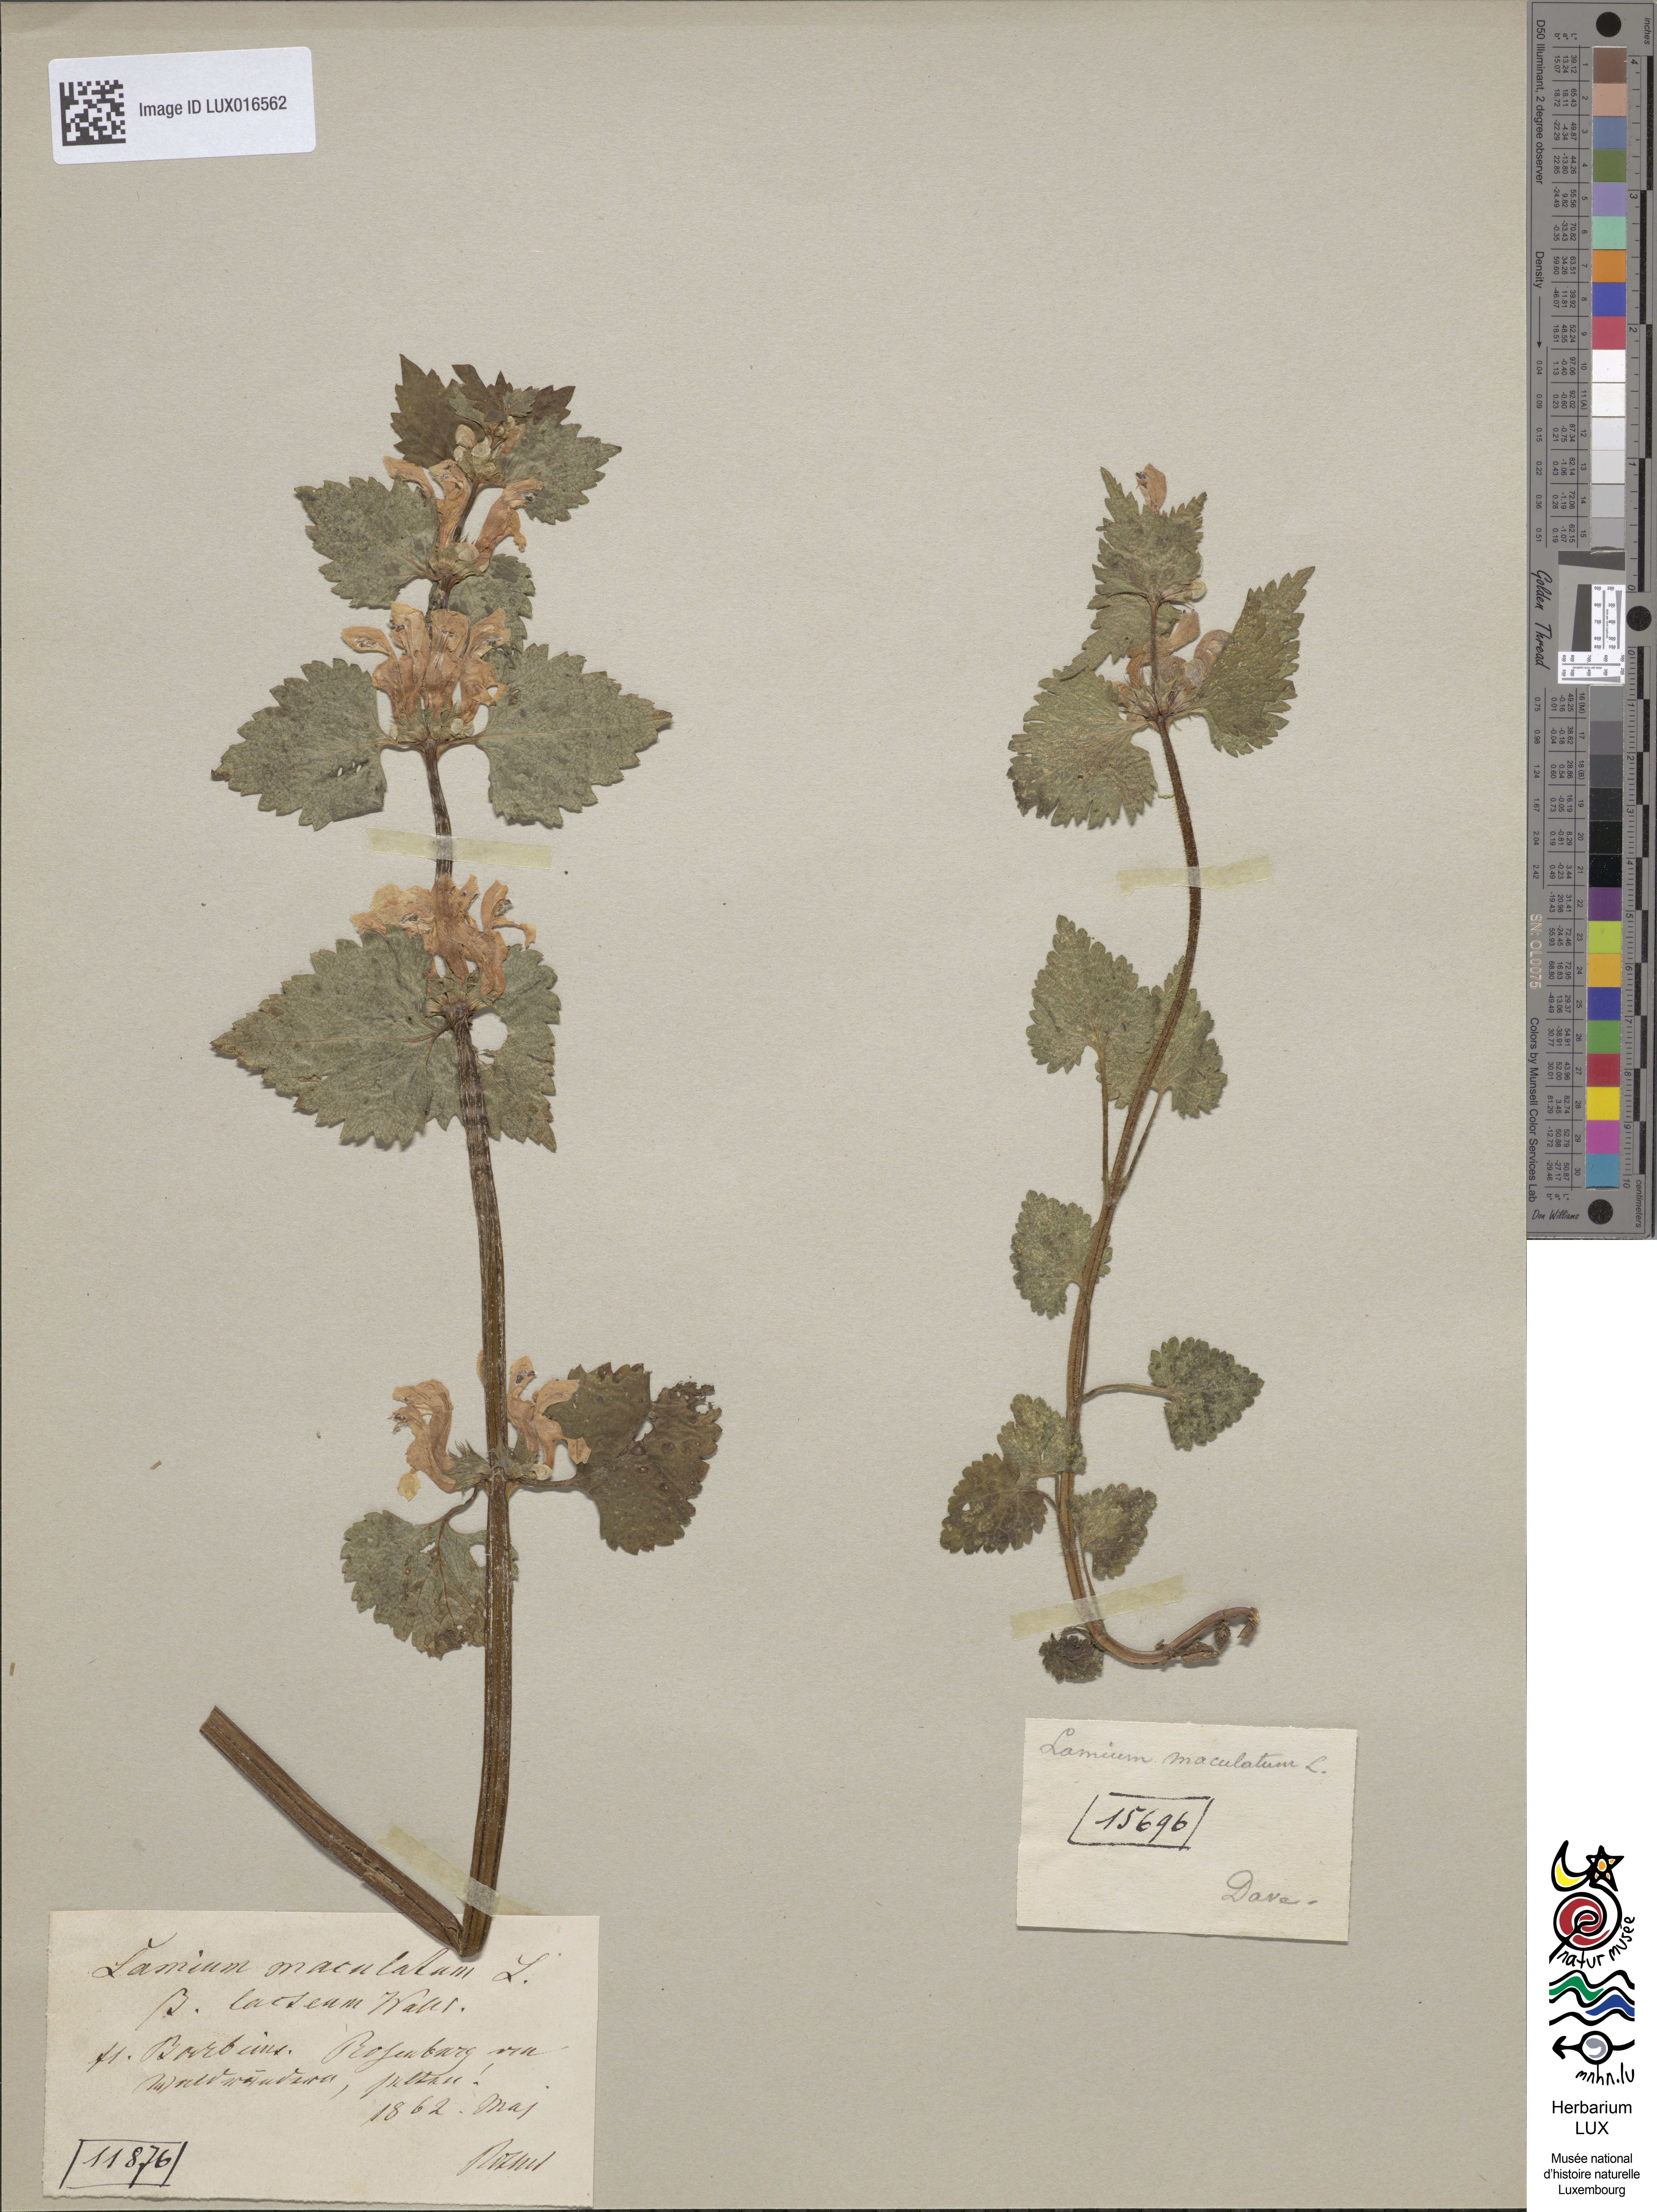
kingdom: Plantae
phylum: Tracheophyta
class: Magnoliopsida
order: Lamiales
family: Lamiaceae
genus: Lamium
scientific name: Lamium maculatum
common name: Spotted dead-nettle
